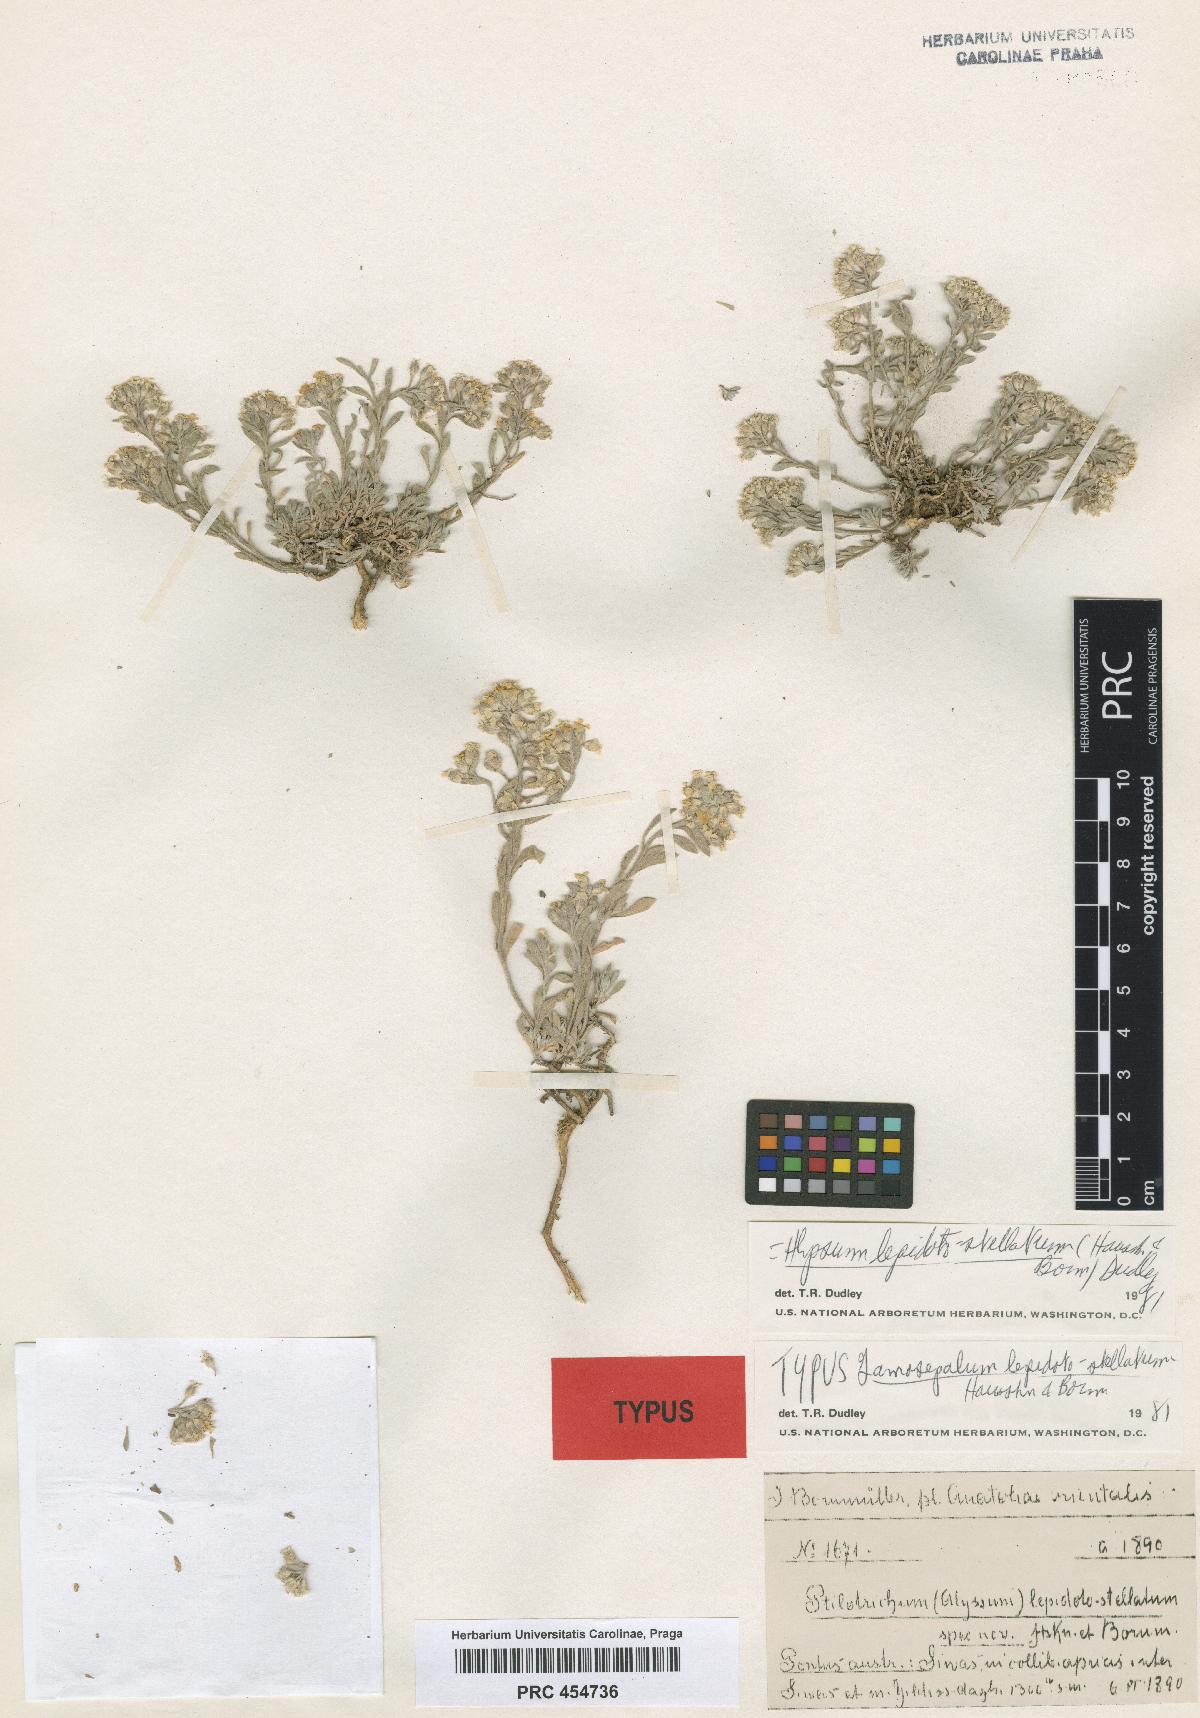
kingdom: Plantae
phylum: Tracheophyta
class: Magnoliopsida
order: Brassicales
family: Brassicaceae
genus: Alyssum
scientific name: Alyssum lepidoto-stellatum
